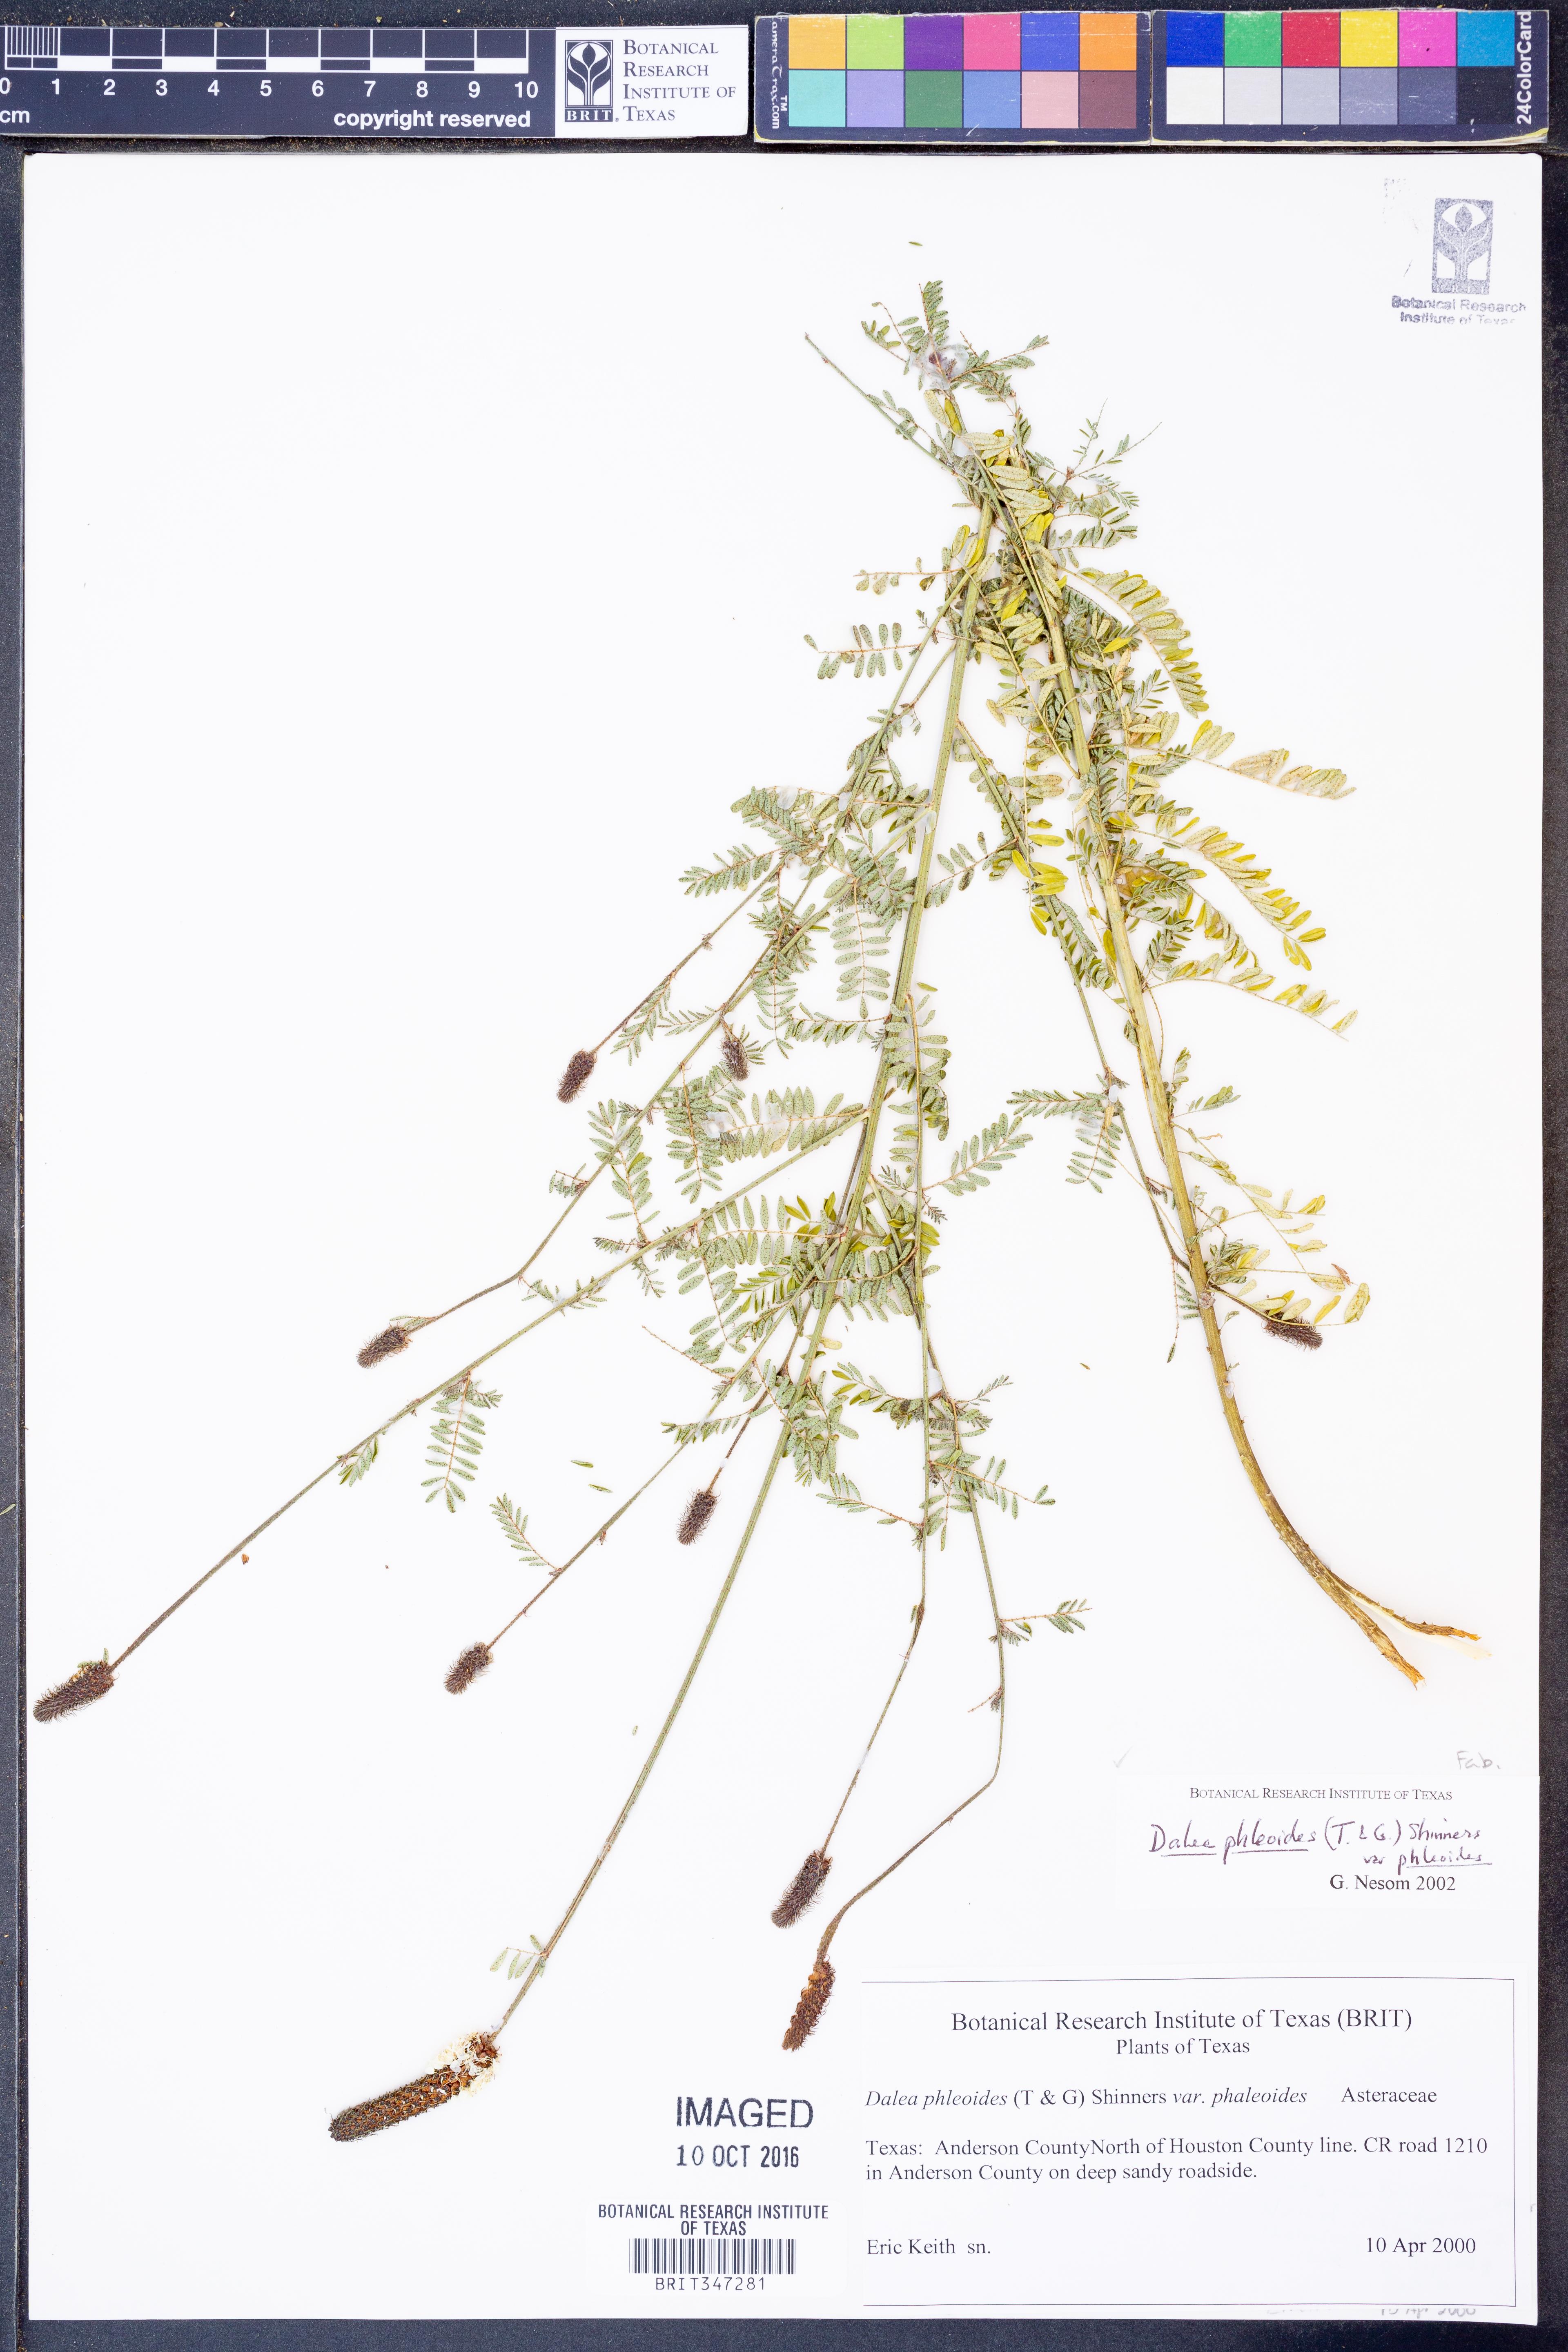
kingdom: Plantae
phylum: Tracheophyta
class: Magnoliopsida
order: Fabales
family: Fabaceae
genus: Dalea
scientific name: Dalea phleoides
